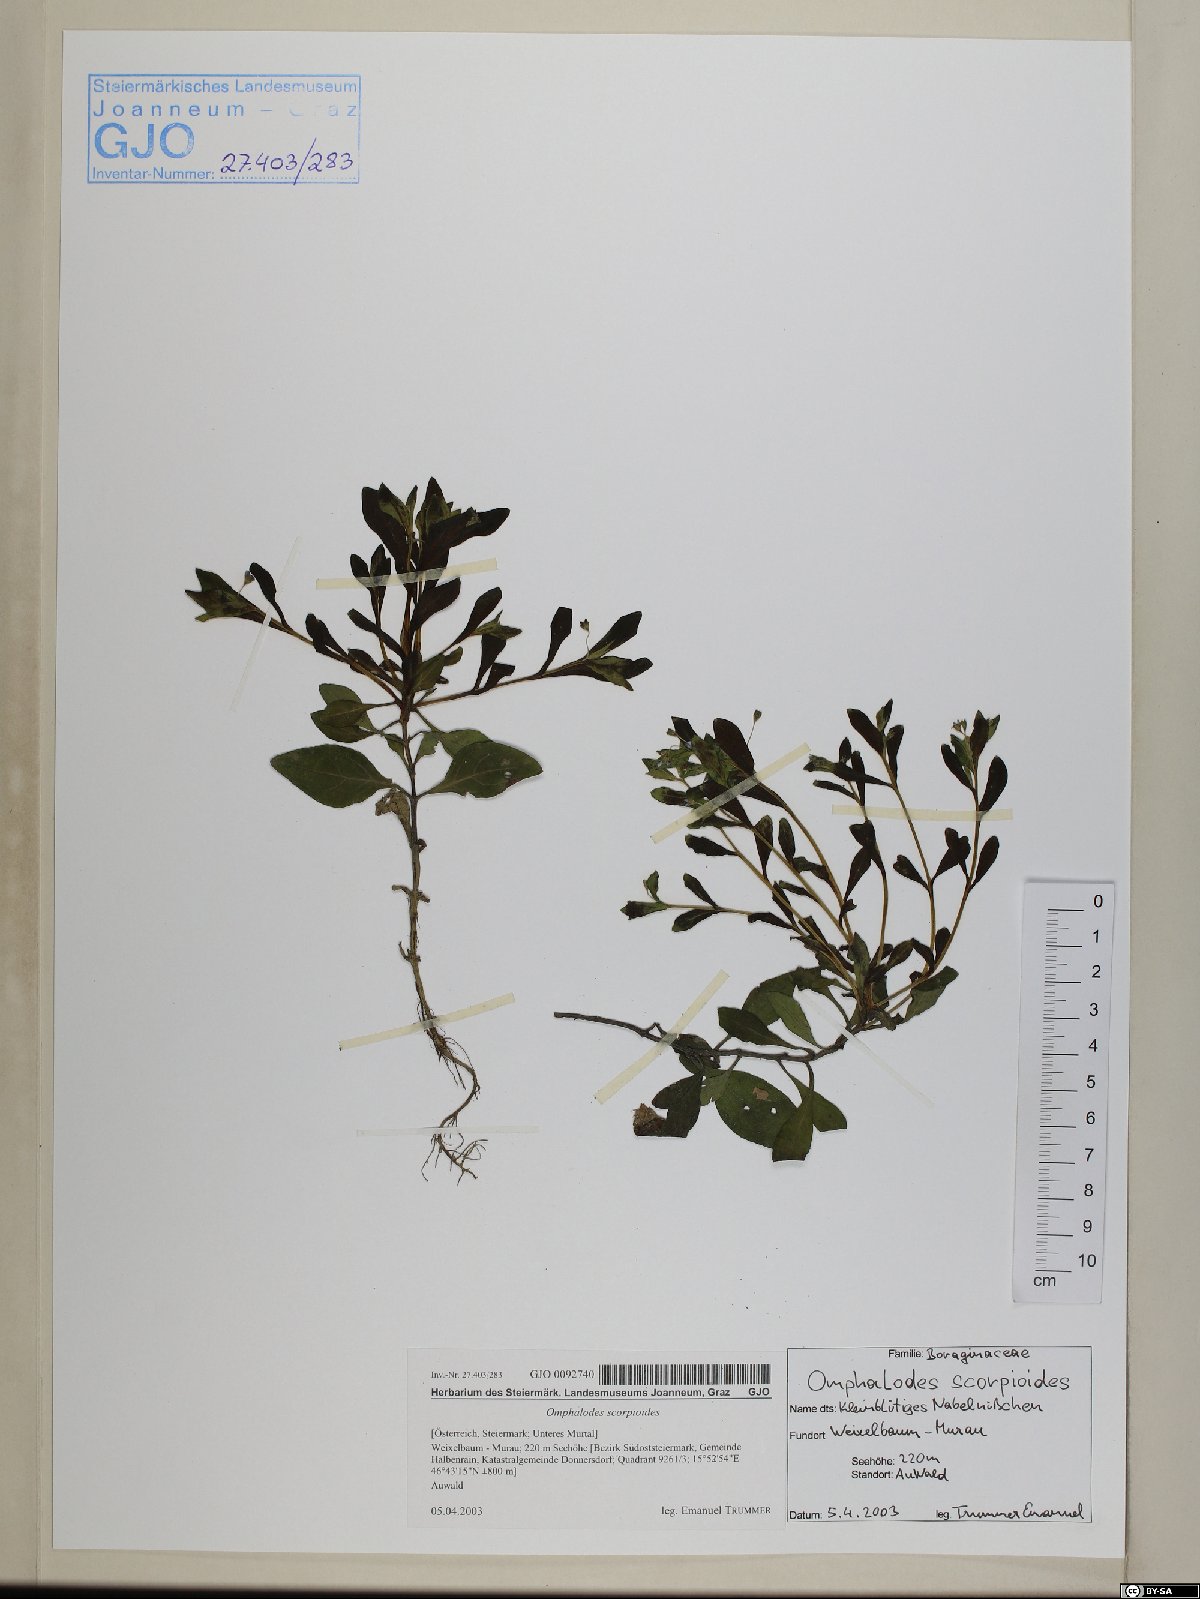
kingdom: Plantae
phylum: Tracheophyta
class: Magnoliopsida
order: Boraginales
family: Boraginaceae
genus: Memoremea
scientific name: Memoremea scorpioides
